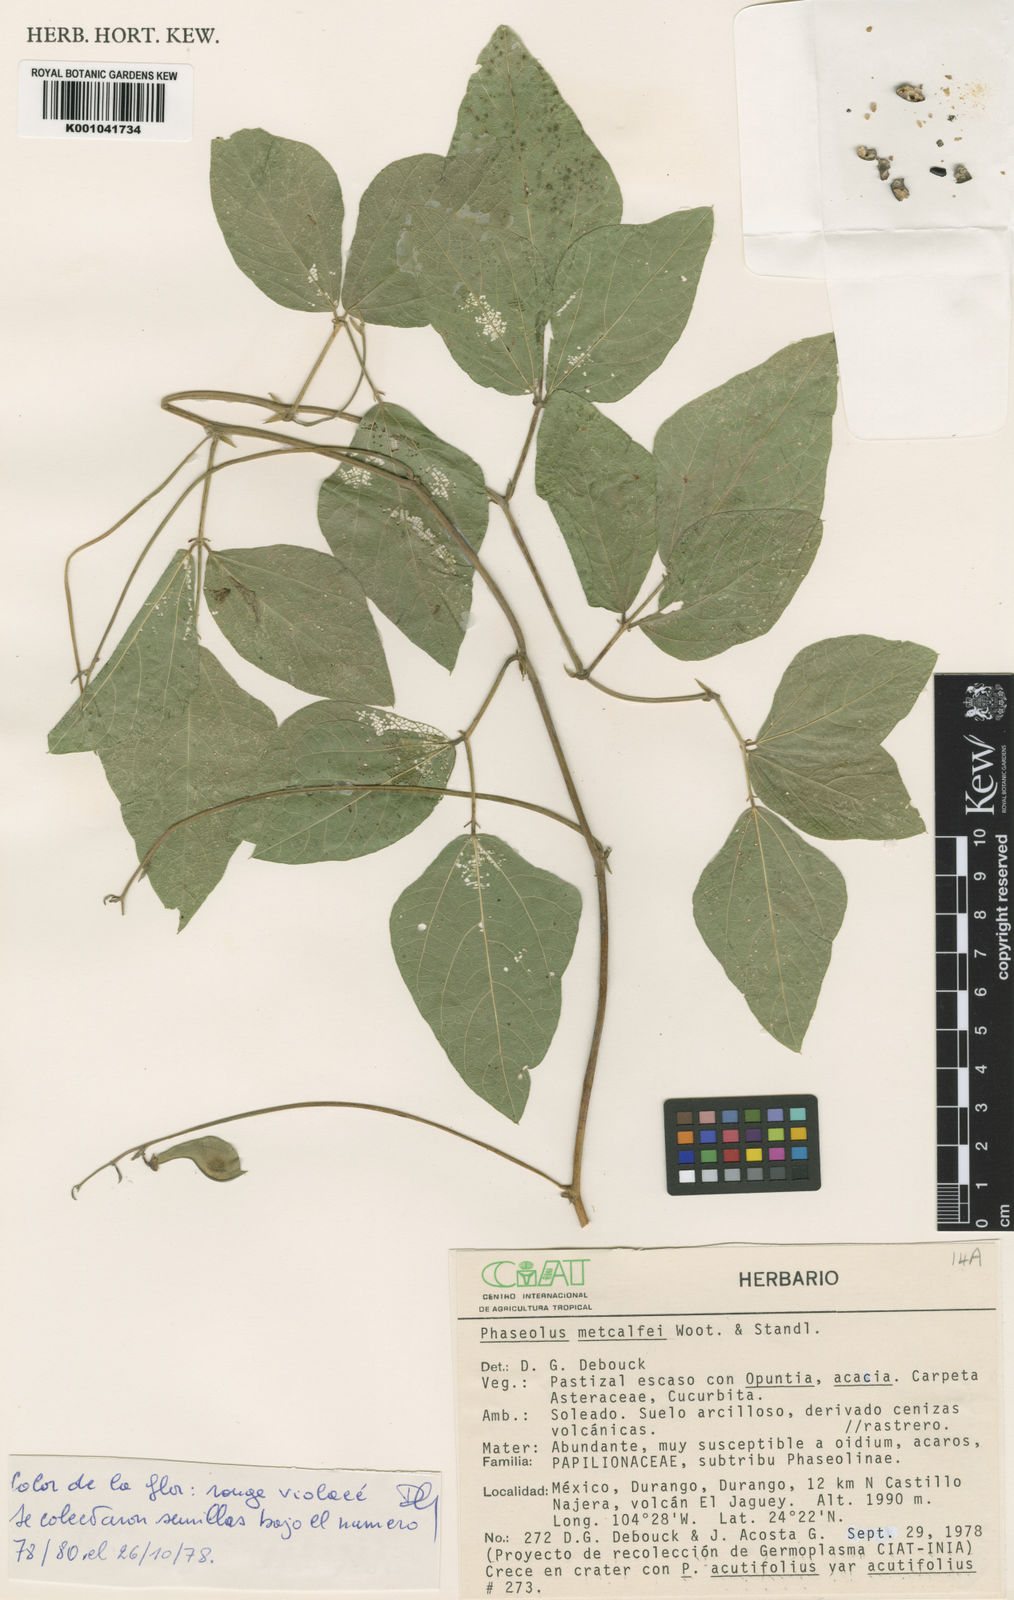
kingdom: Plantae
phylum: Tracheophyta
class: Magnoliopsida
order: Fabales
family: Fabaceae
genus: Phaseolus
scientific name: Phaseolus
